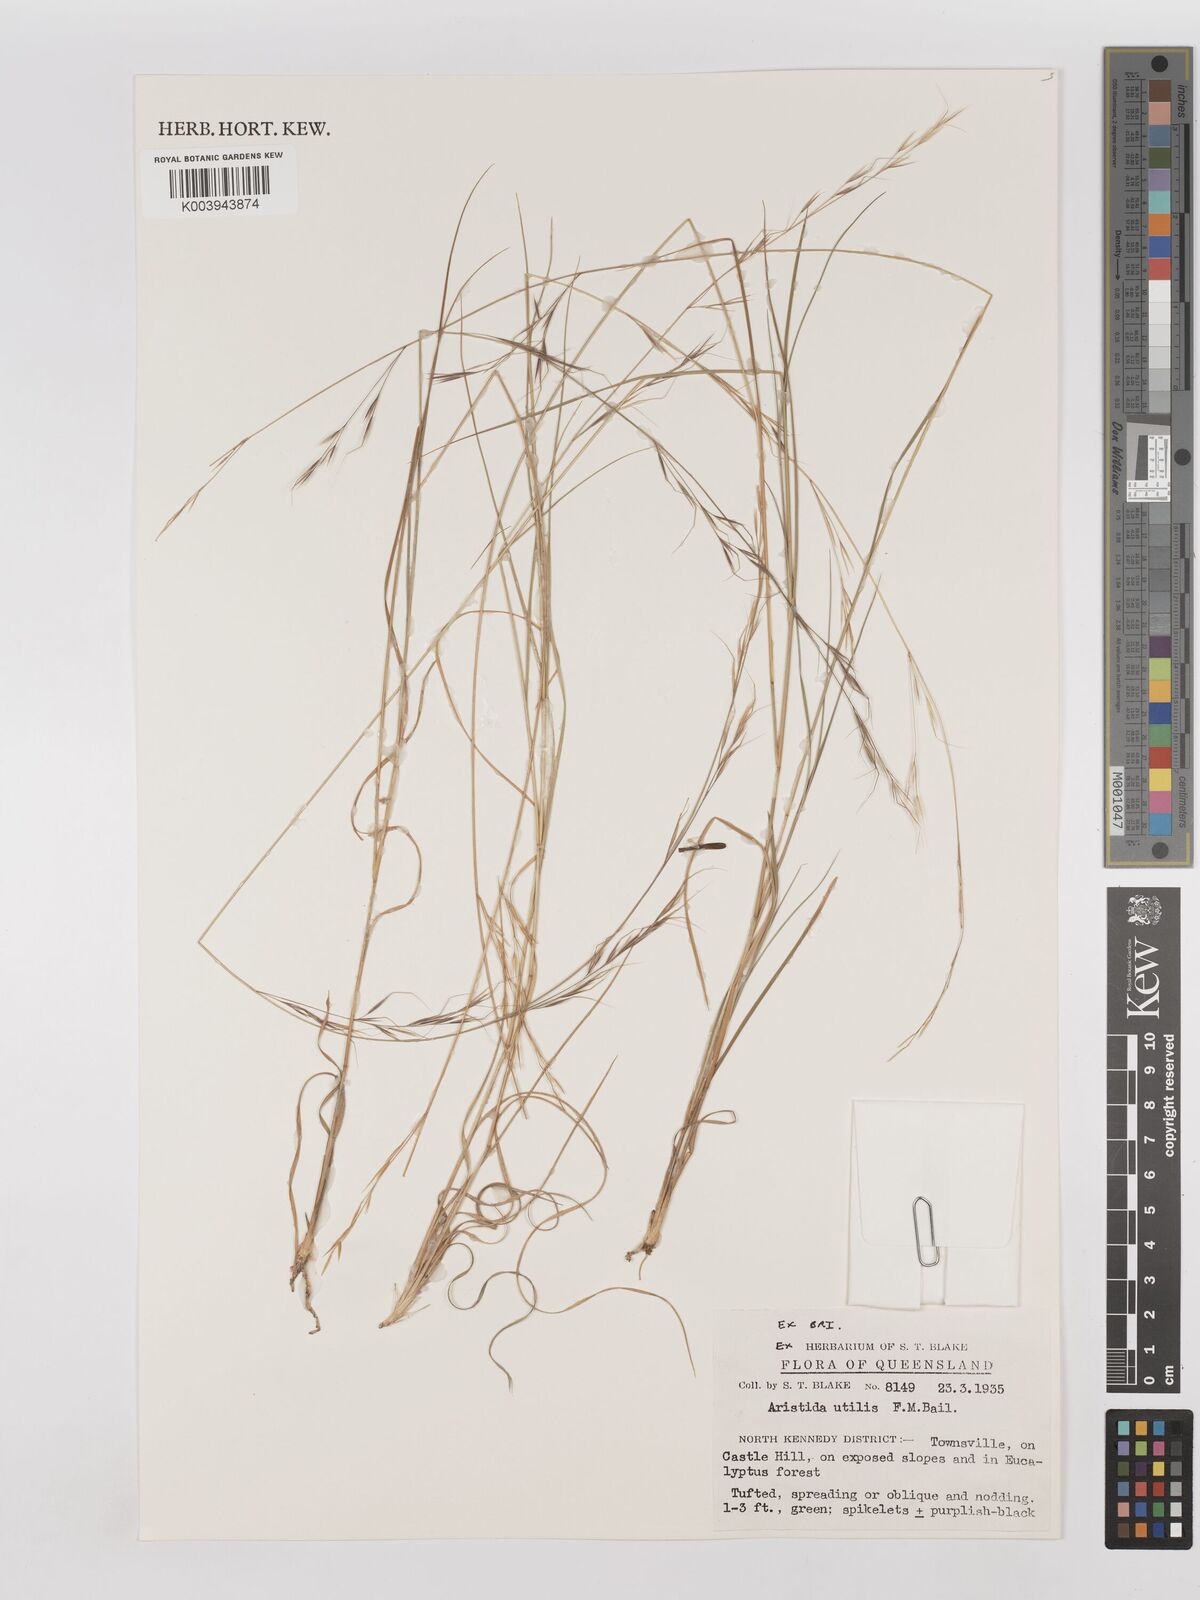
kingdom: Plantae
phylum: Tracheophyta
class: Liliopsida
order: Poales
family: Poaceae
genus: Aristida
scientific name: Aristida utilis
